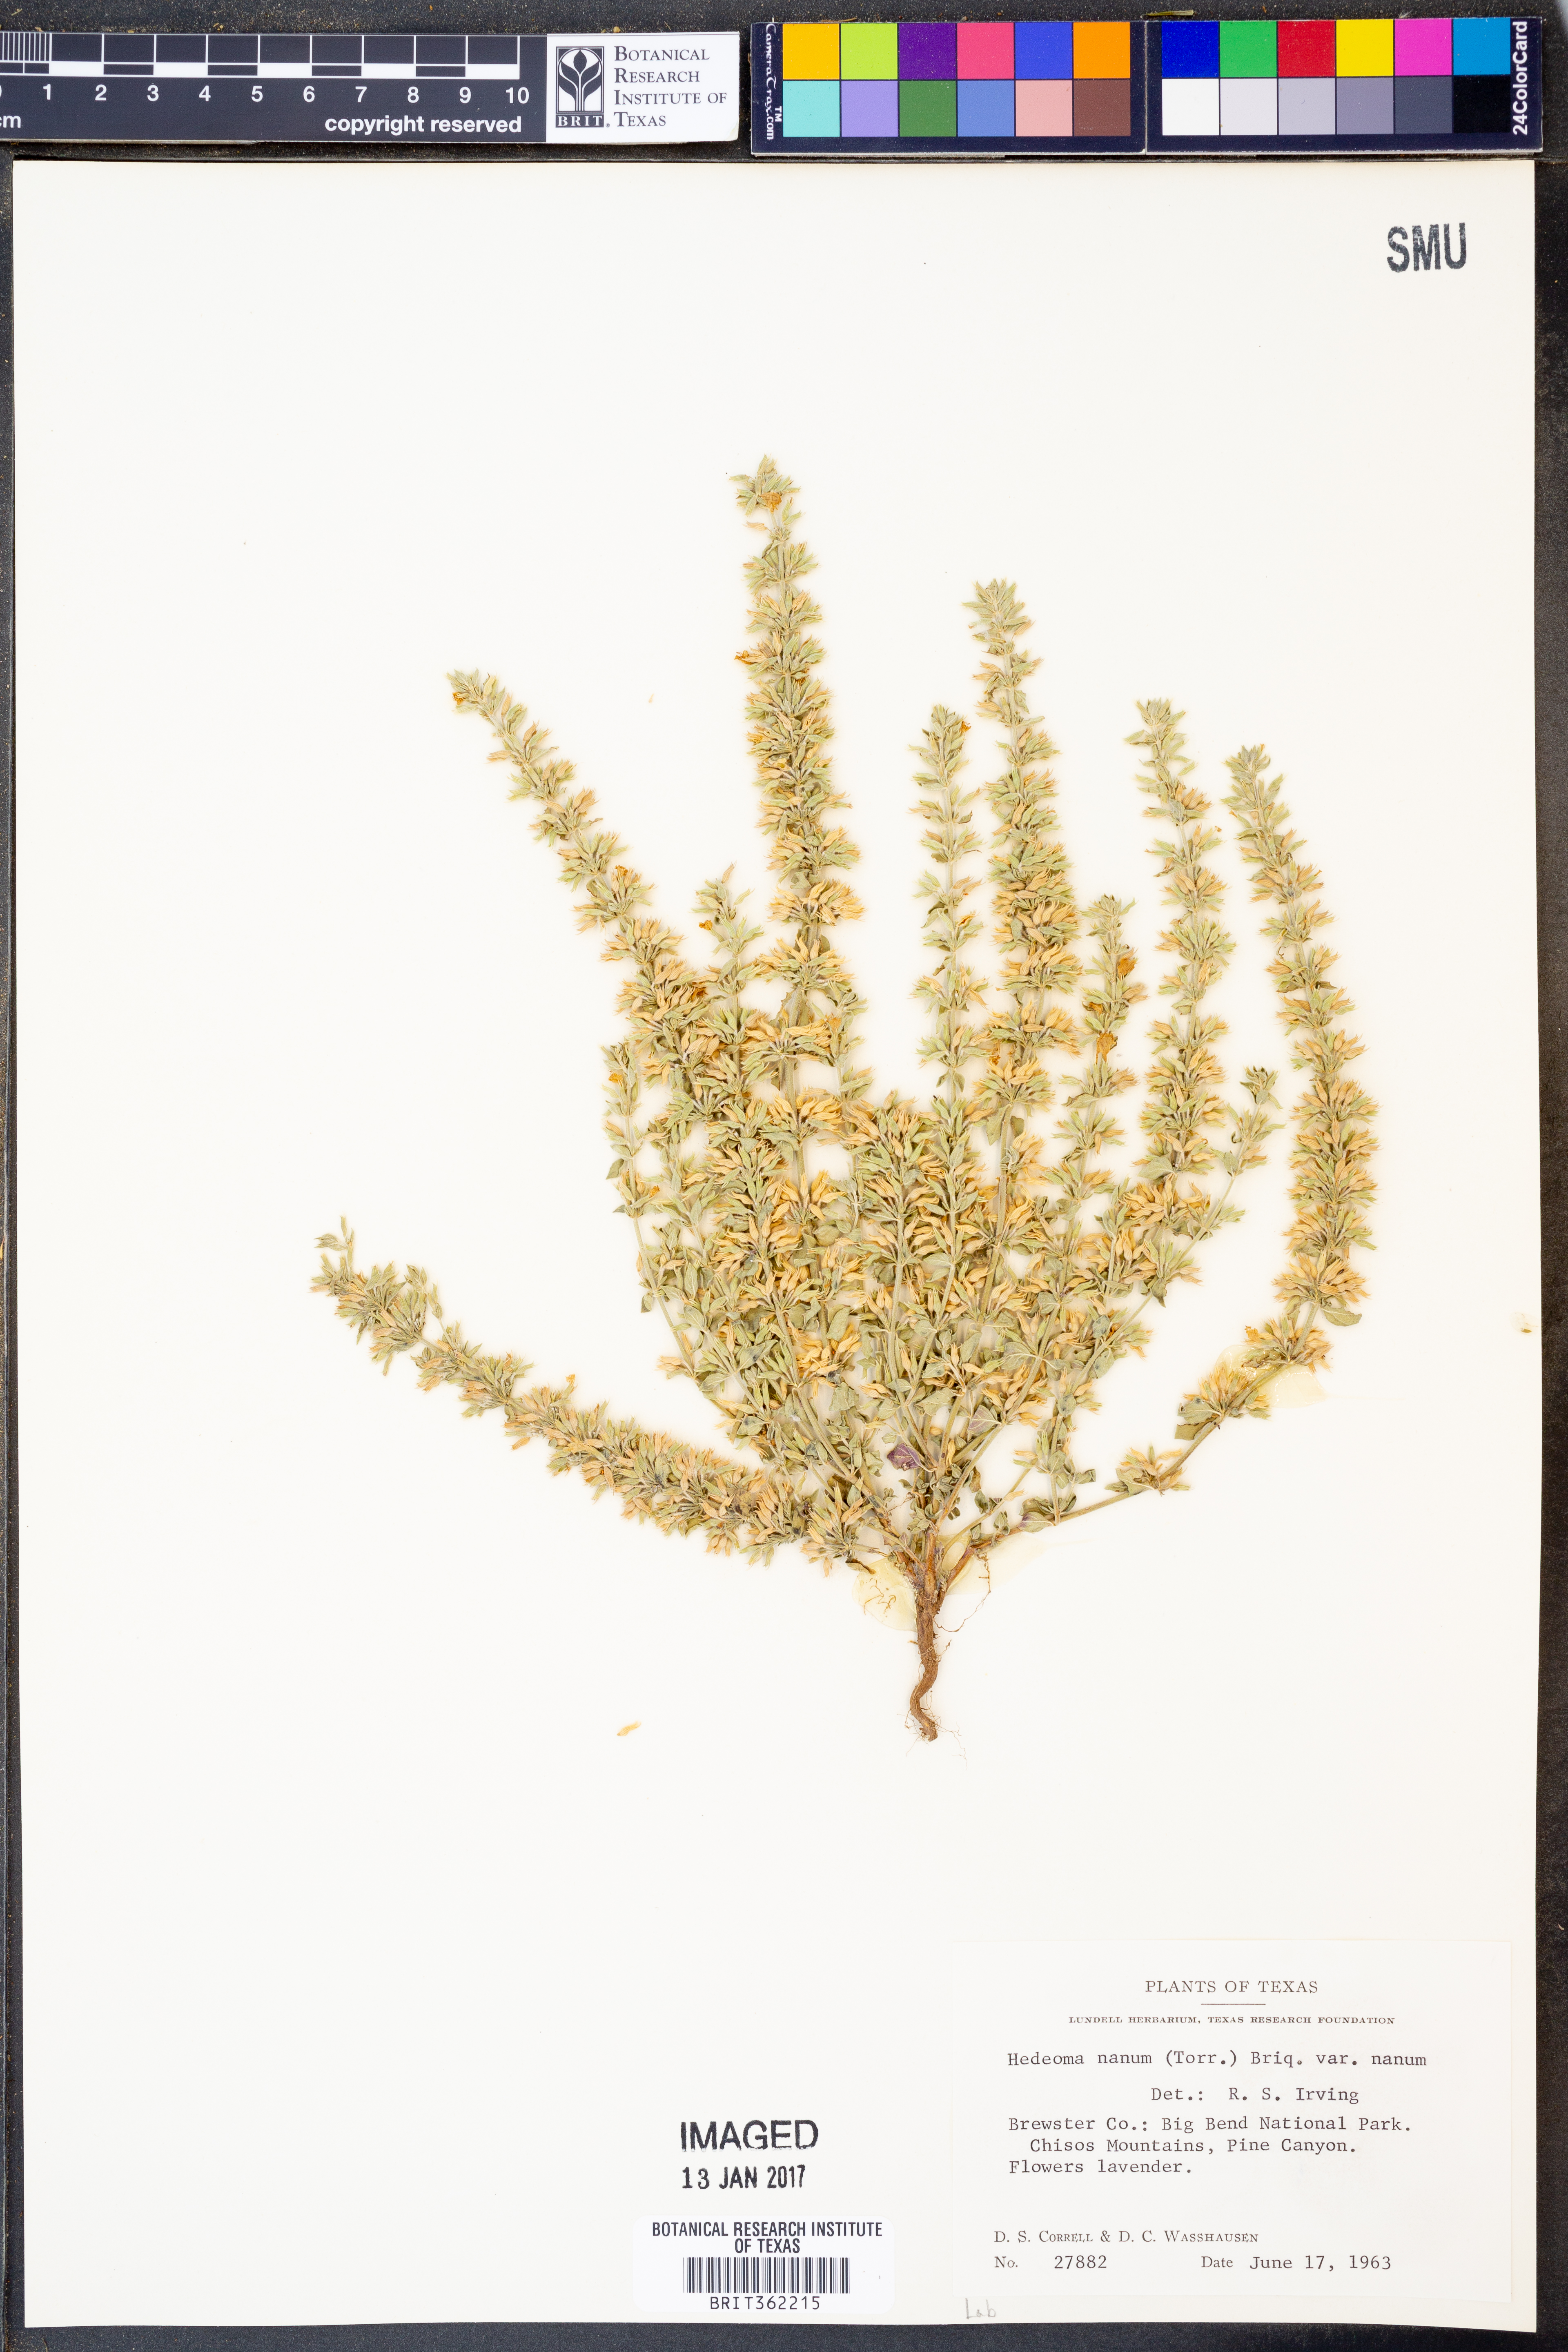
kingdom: Plantae
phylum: Tracheophyta
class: Magnoliopsida
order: Lamiales
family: Lamiaceae
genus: Hedeoma
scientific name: Hedeoma nana
